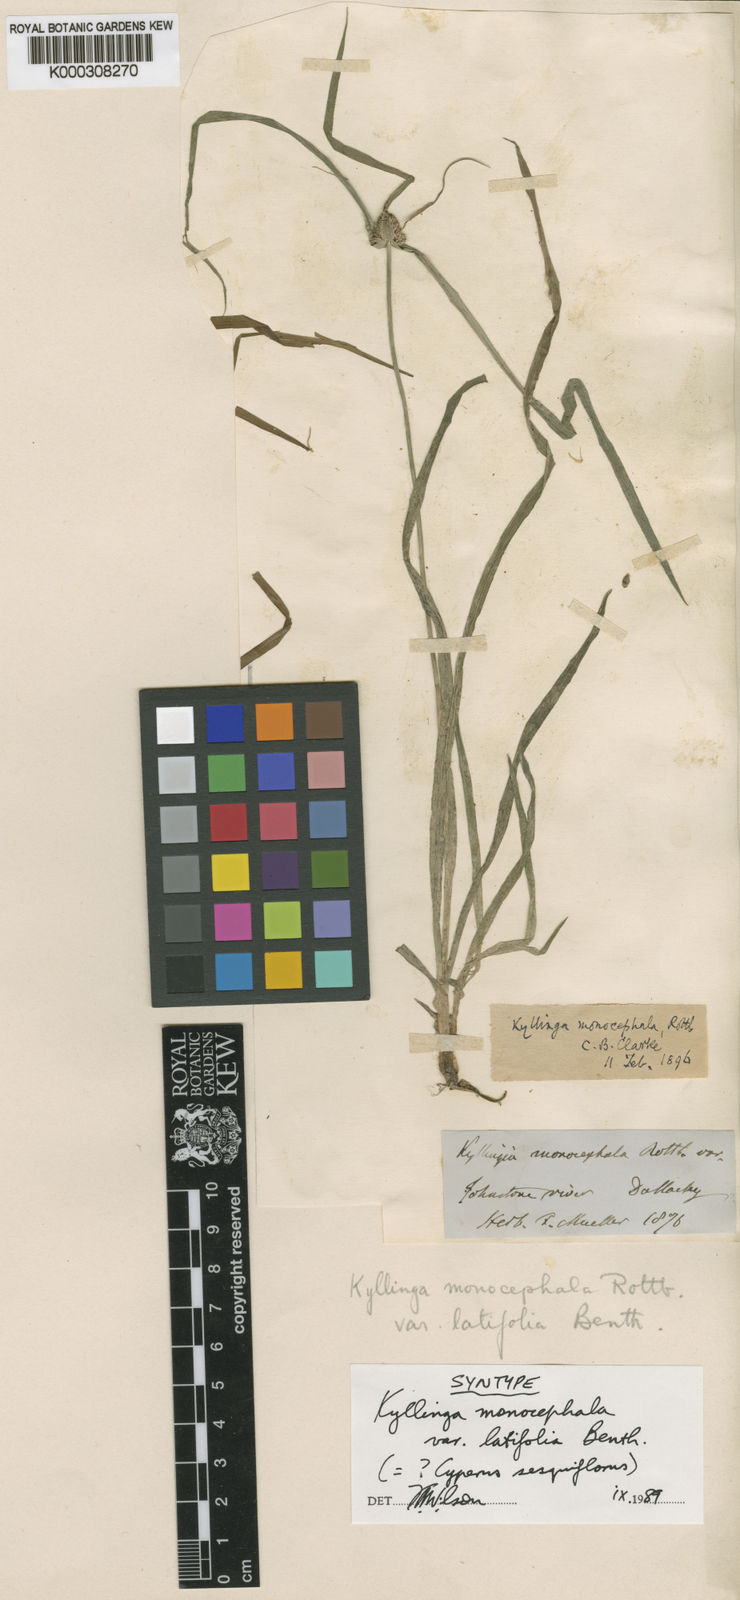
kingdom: Plantae
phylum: Tracheophyta
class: Liliopsida
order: Poales
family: Cyperaceae
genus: Cyperus
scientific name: Cyperus mindorensis
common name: Flatsedge
